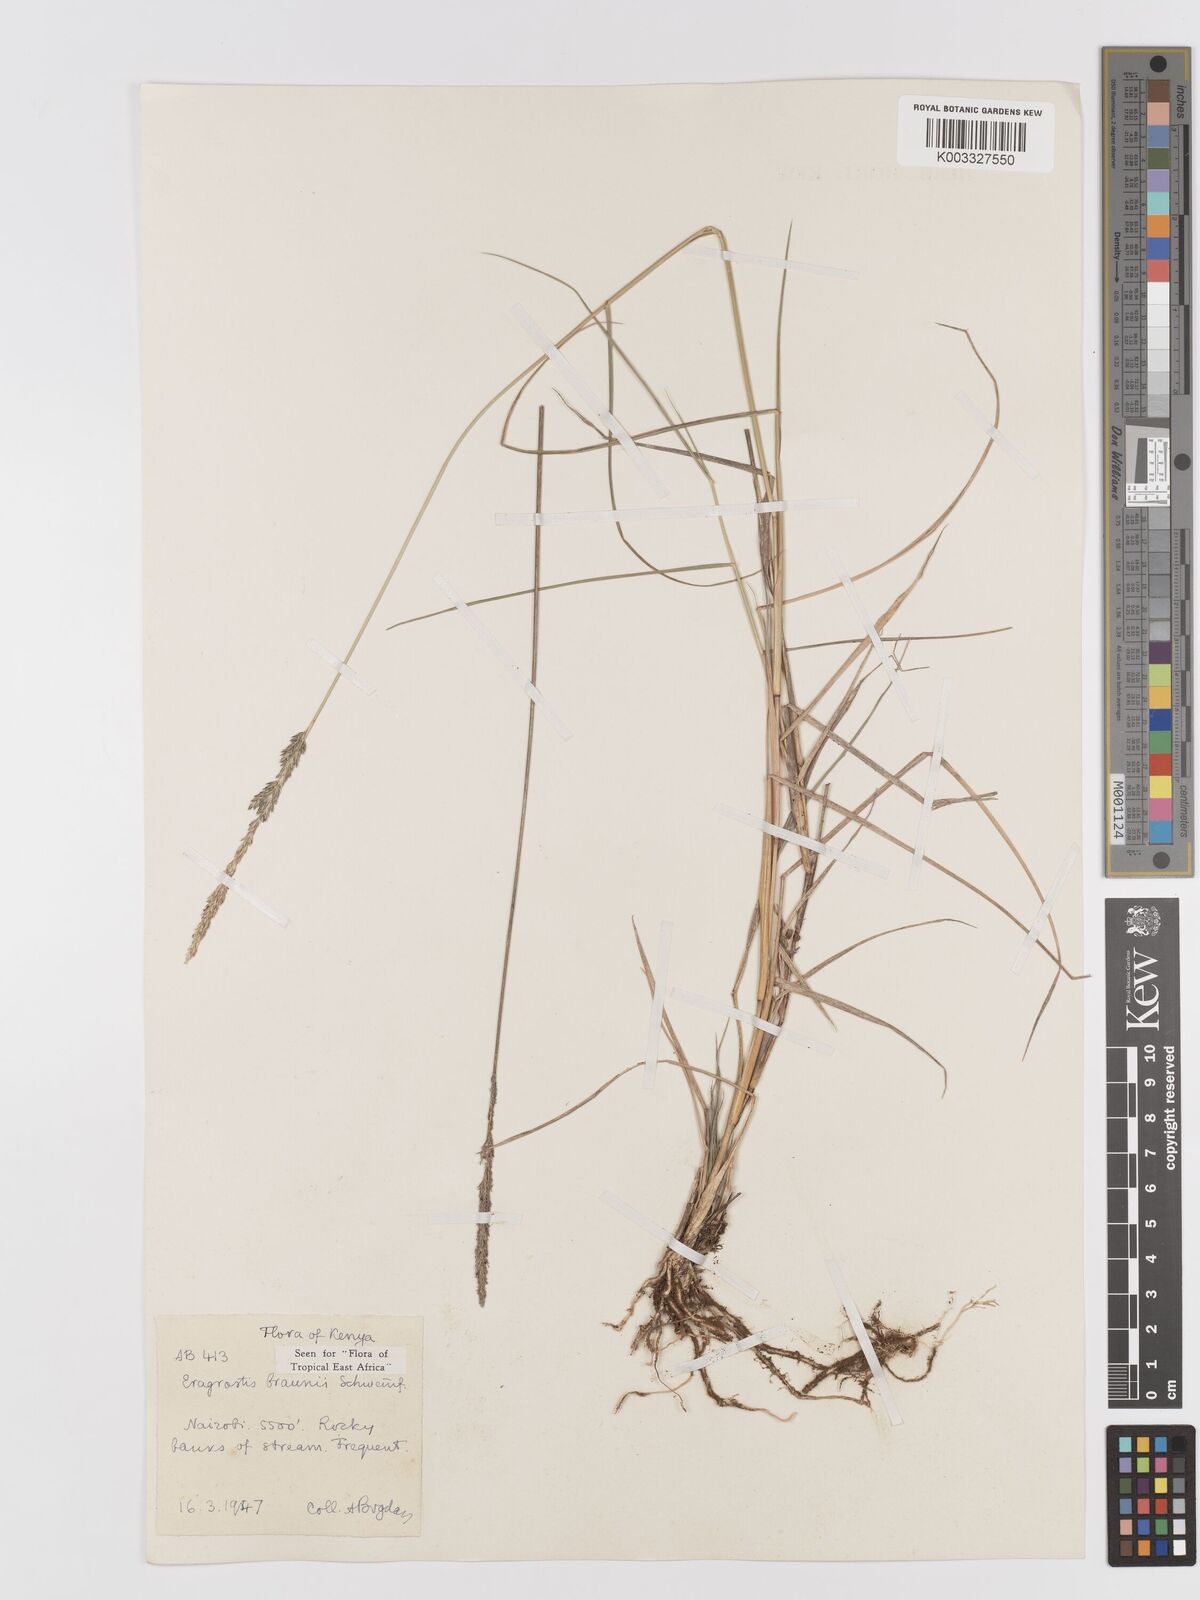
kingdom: Plantae
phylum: Tracheophyta
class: Liliopsida
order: Poales
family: Poaceae
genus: Eragrostis
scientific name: Eragrostis braunii
